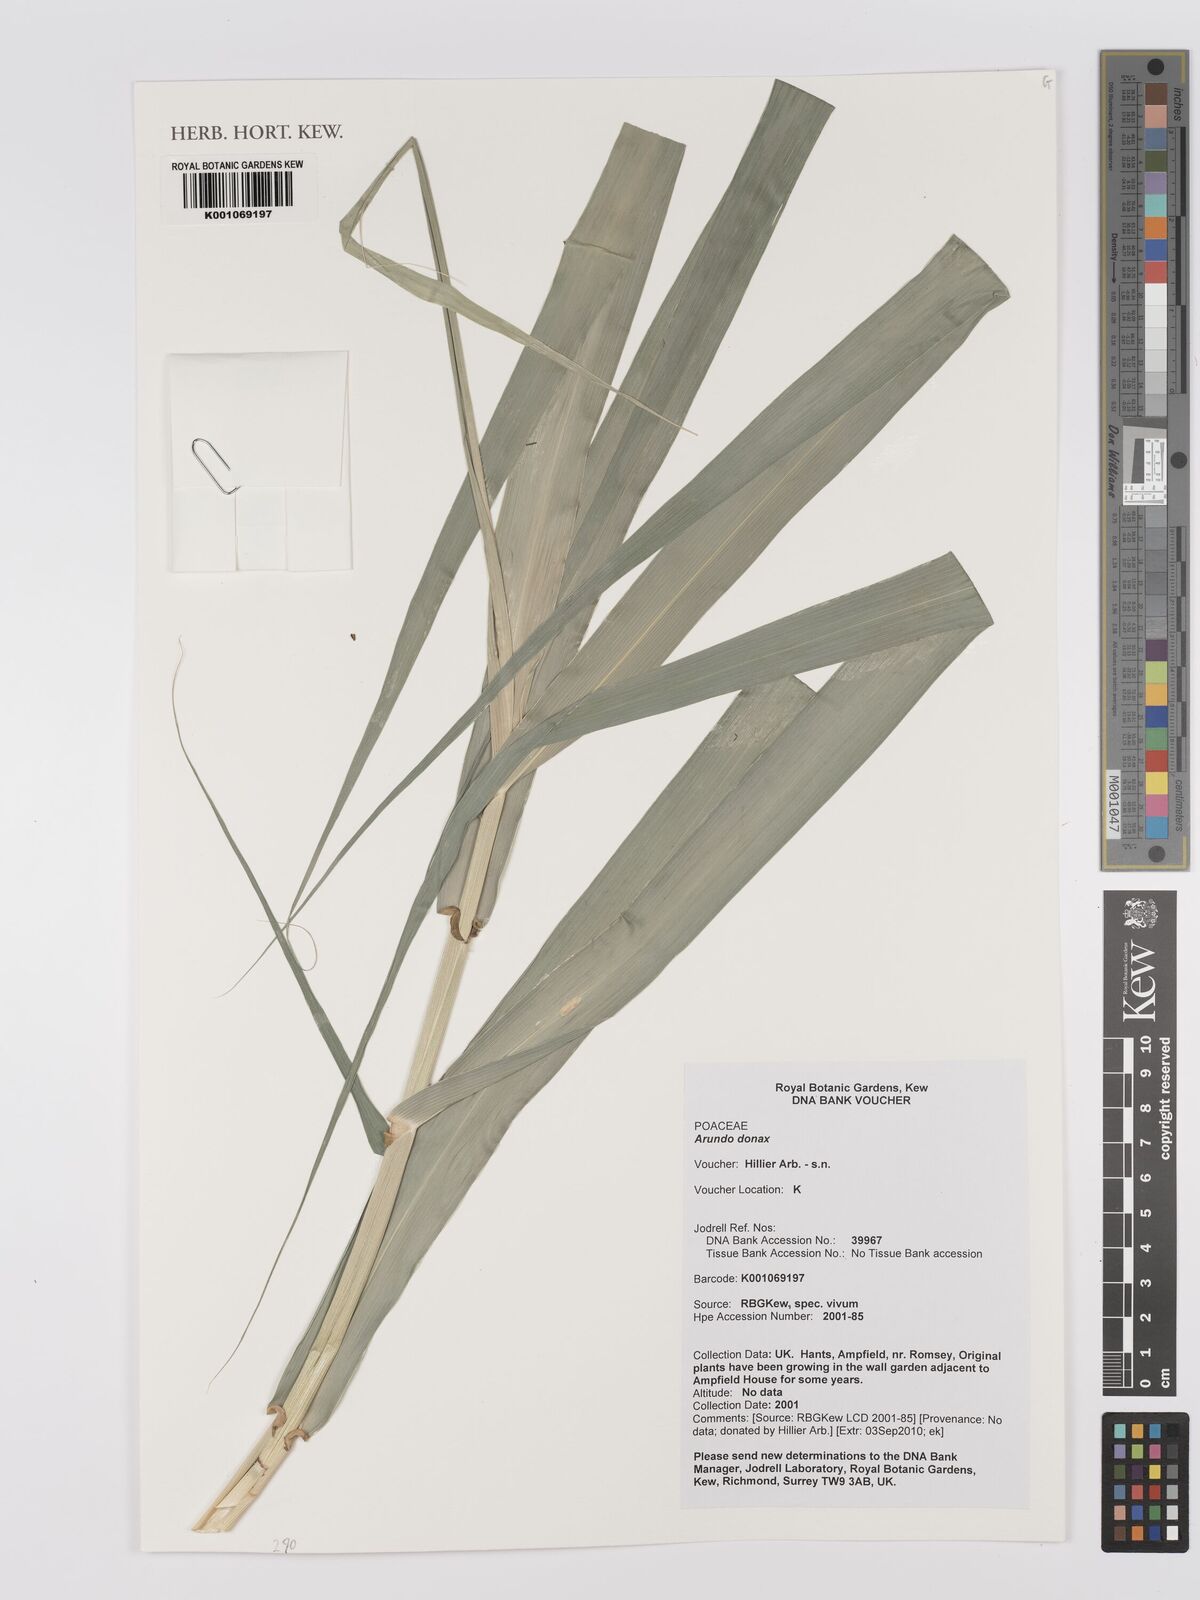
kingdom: Plantae
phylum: Tracheophyta
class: Liliopsida
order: Poales
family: Poaceae
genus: Arundo
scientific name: Arundo donax
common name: Giant reed
